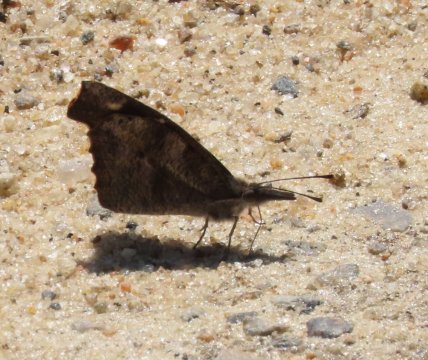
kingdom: Animalia
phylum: Arthropoda
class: Insecta
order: Lepidoptera
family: Nymphalidae
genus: Libytheana
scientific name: Libytheana carinenta
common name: American Snout
